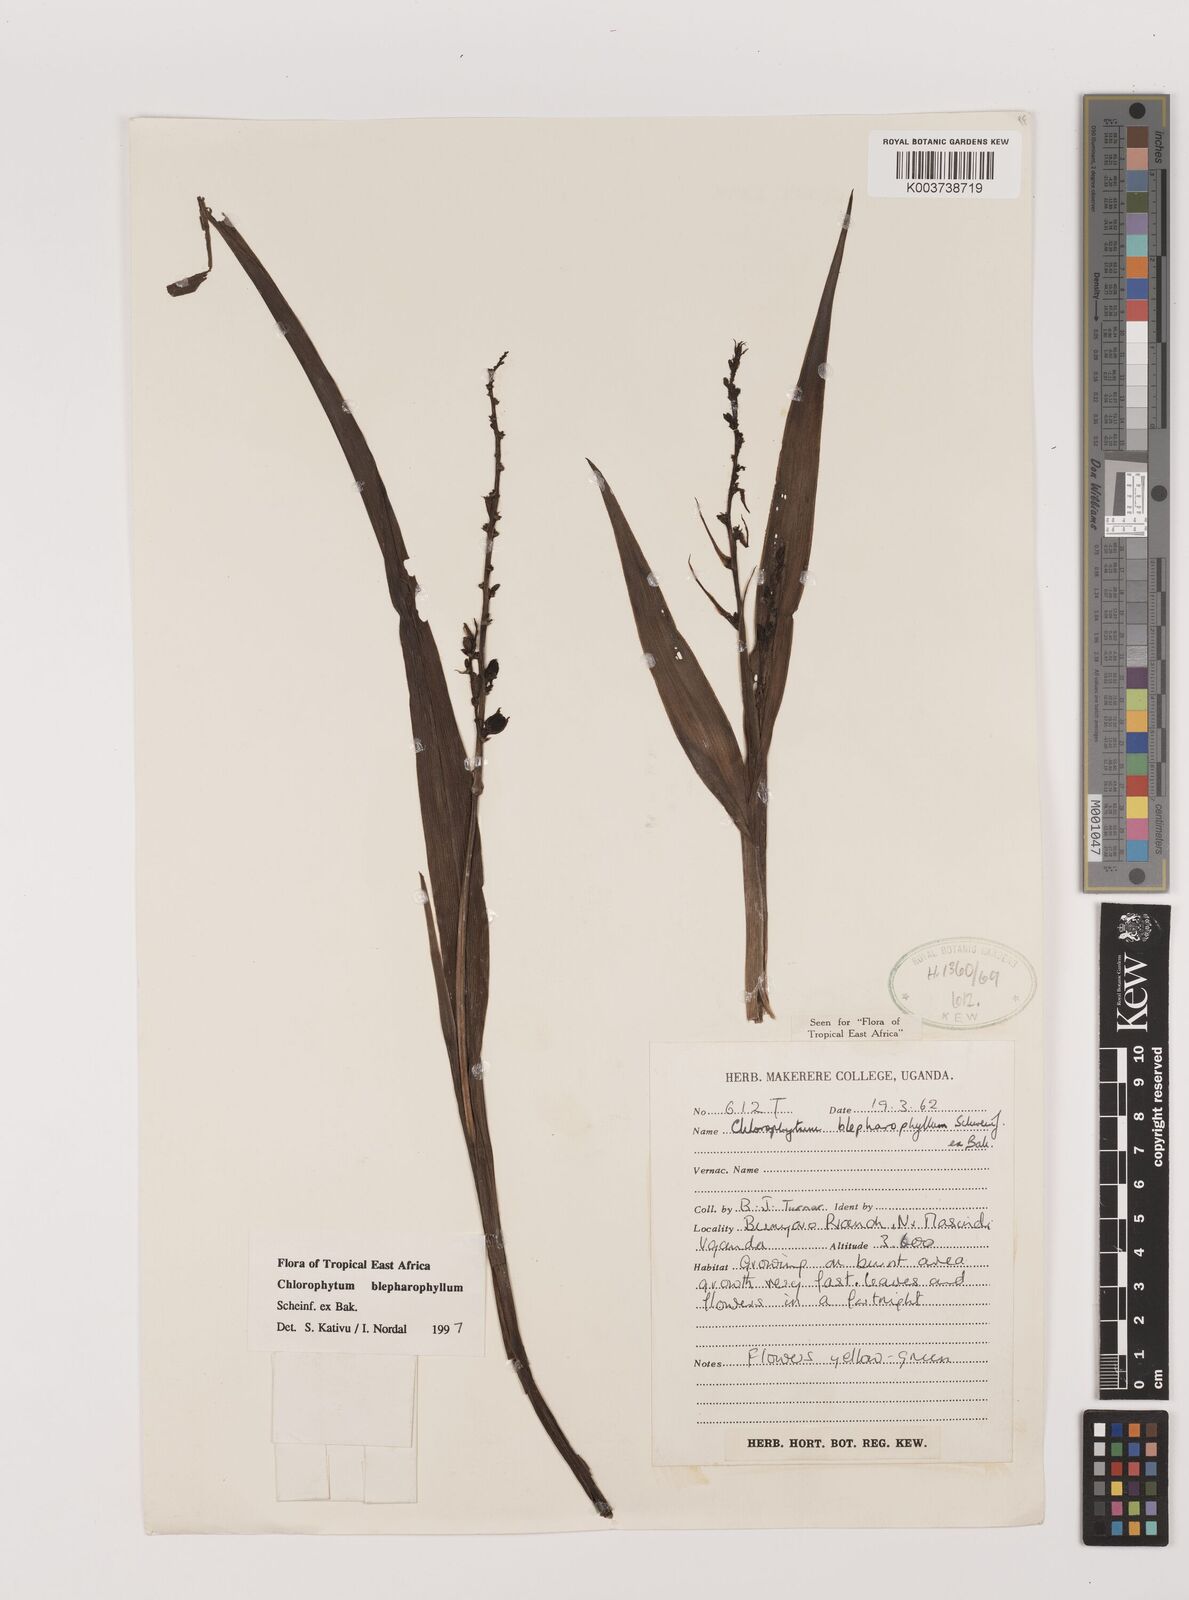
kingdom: Plantae
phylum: Tracheophyta
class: Liliopsida
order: Asparagales
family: Asparagaceae
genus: Chlorophytum
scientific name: Chlorophytum blepharophyllum
